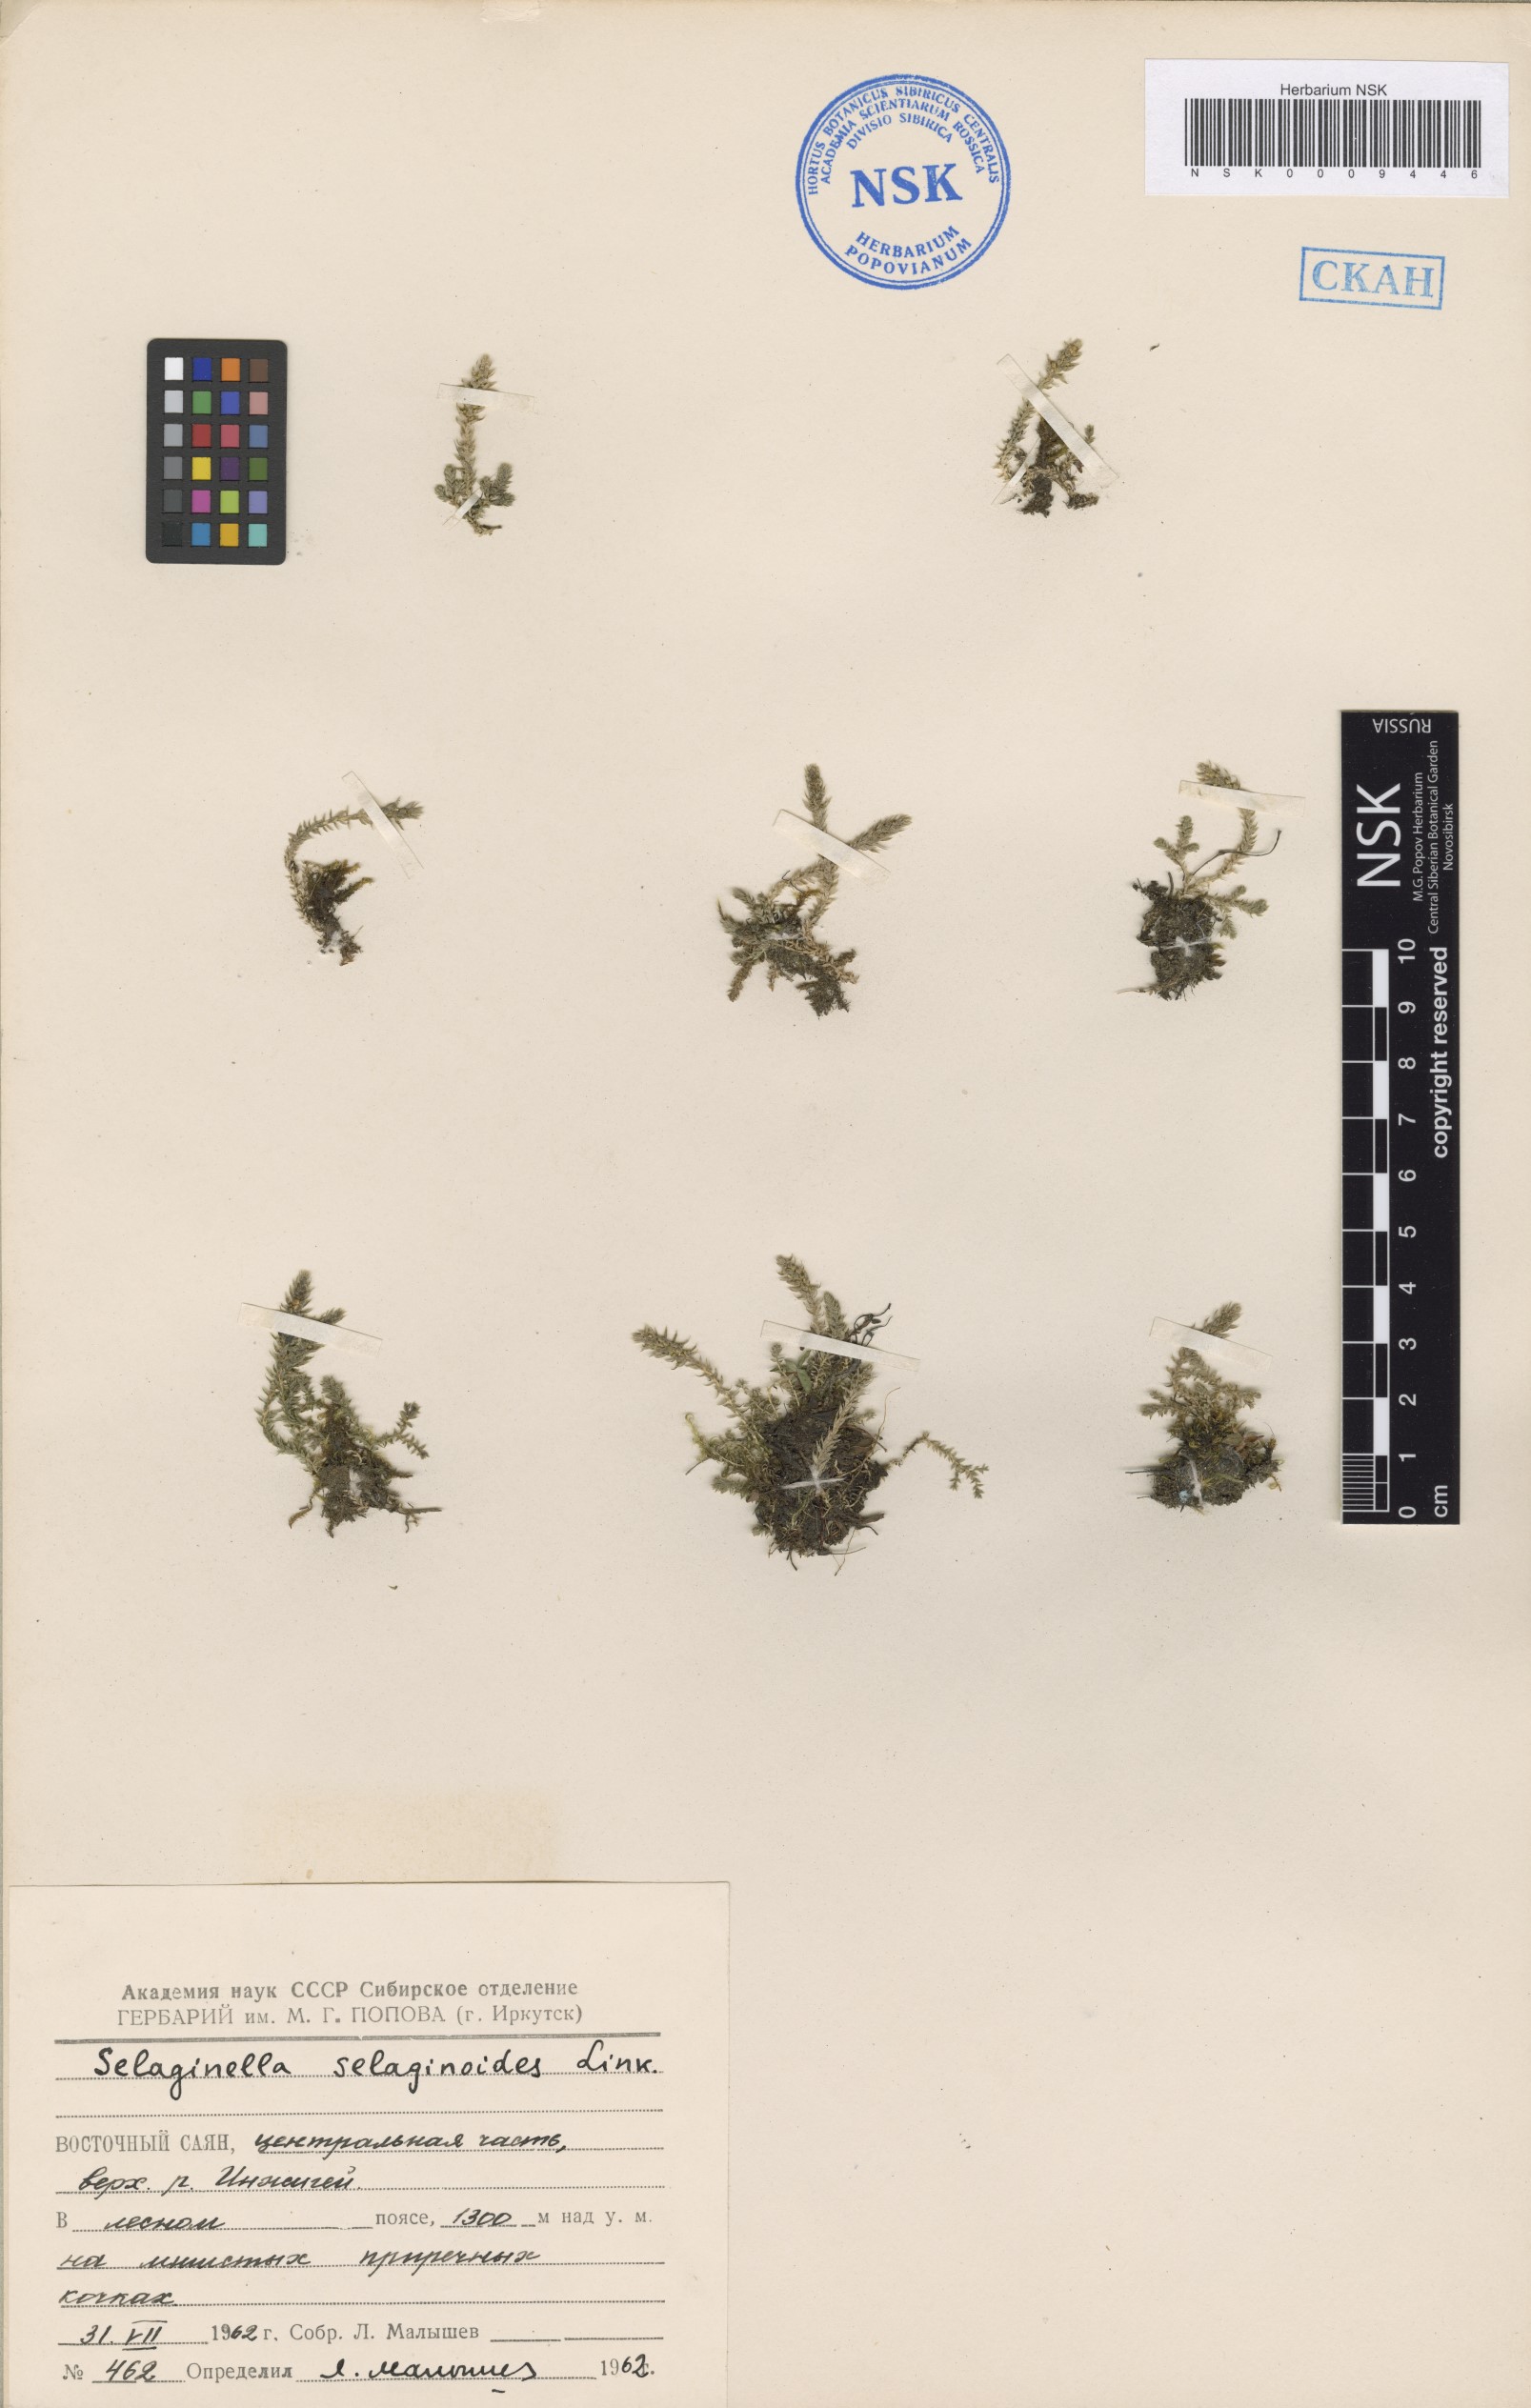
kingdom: Plantae
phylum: Tracheophyta
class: Lycopodiopsida
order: Selaginellales
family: Selaginellaceae
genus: Selaginella
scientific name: Selaginella selaginoides
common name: Prickly mountain-moss
